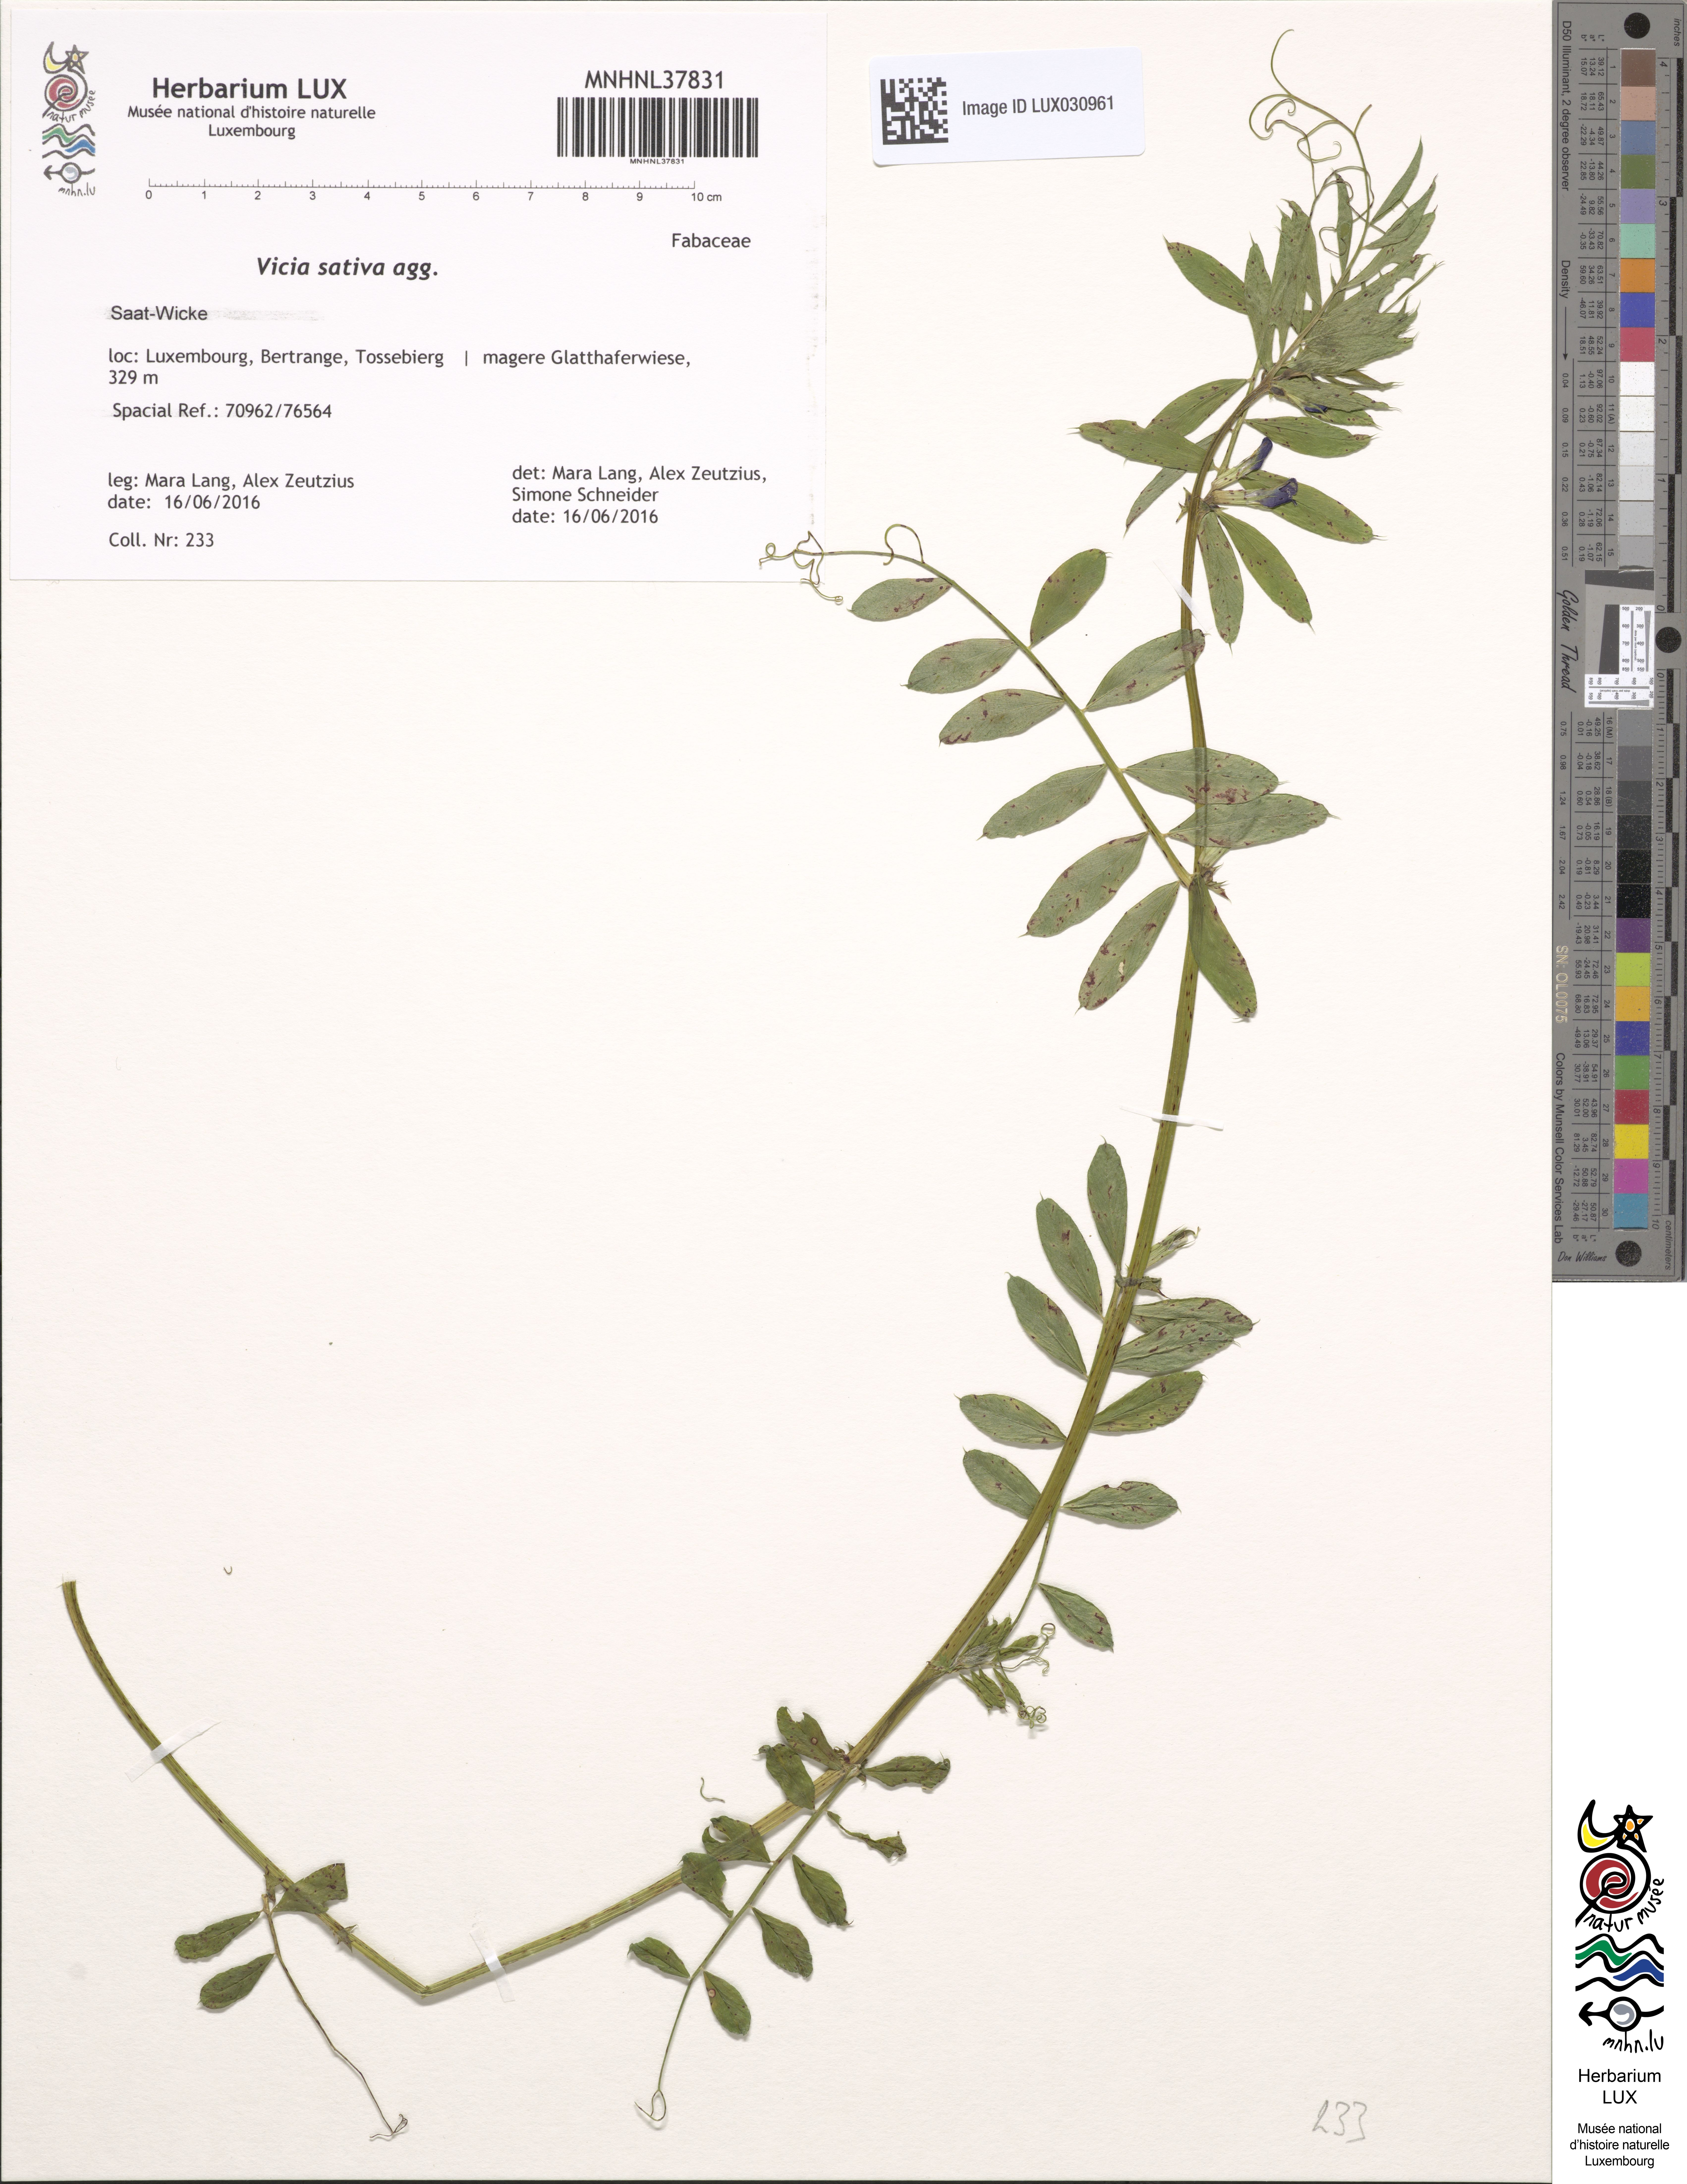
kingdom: Plantae
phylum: Tracheophyta
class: Magnoliopsida
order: Fabales
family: Fabaceae
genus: Vicia
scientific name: Vicia
